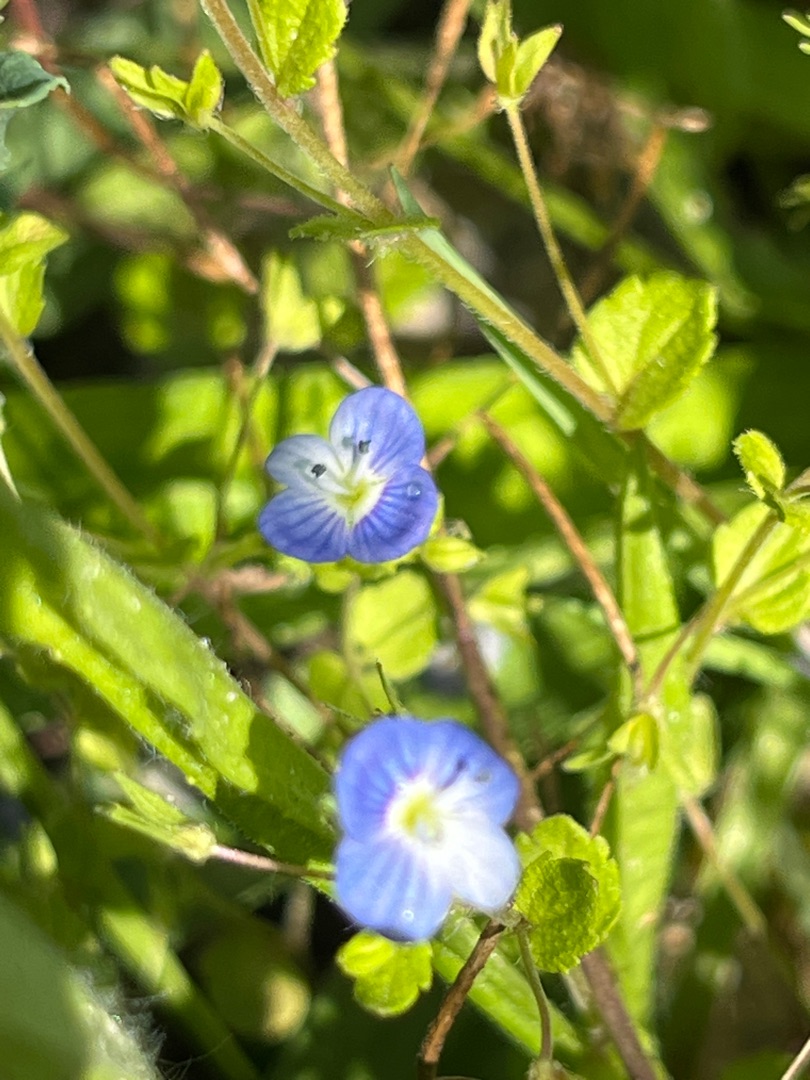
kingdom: Plantae
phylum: Tracheophyta
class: Magnoliopsida
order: Lamiales
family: Plantaginaceae
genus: Veronica
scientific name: Veronica persica
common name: Storkronet ærenpris
